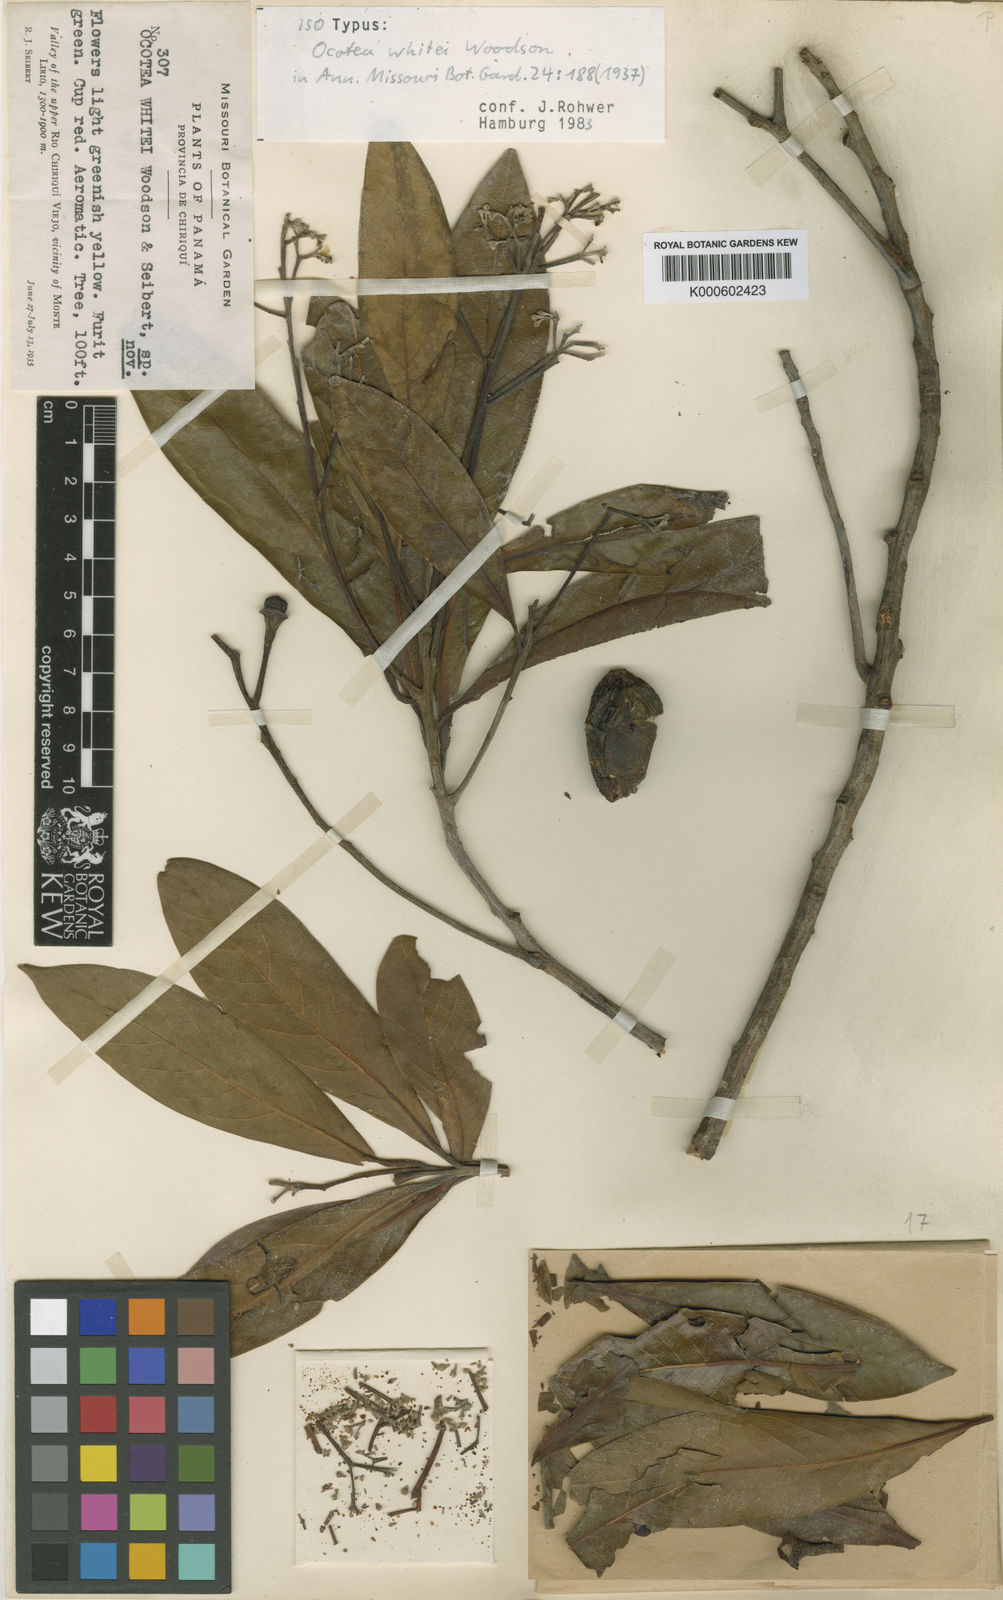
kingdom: Plantae
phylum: Tracheophyta
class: Magnoliopsida
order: Laurales
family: Lauraceae
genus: Ocotea
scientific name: Ocotea whitei
